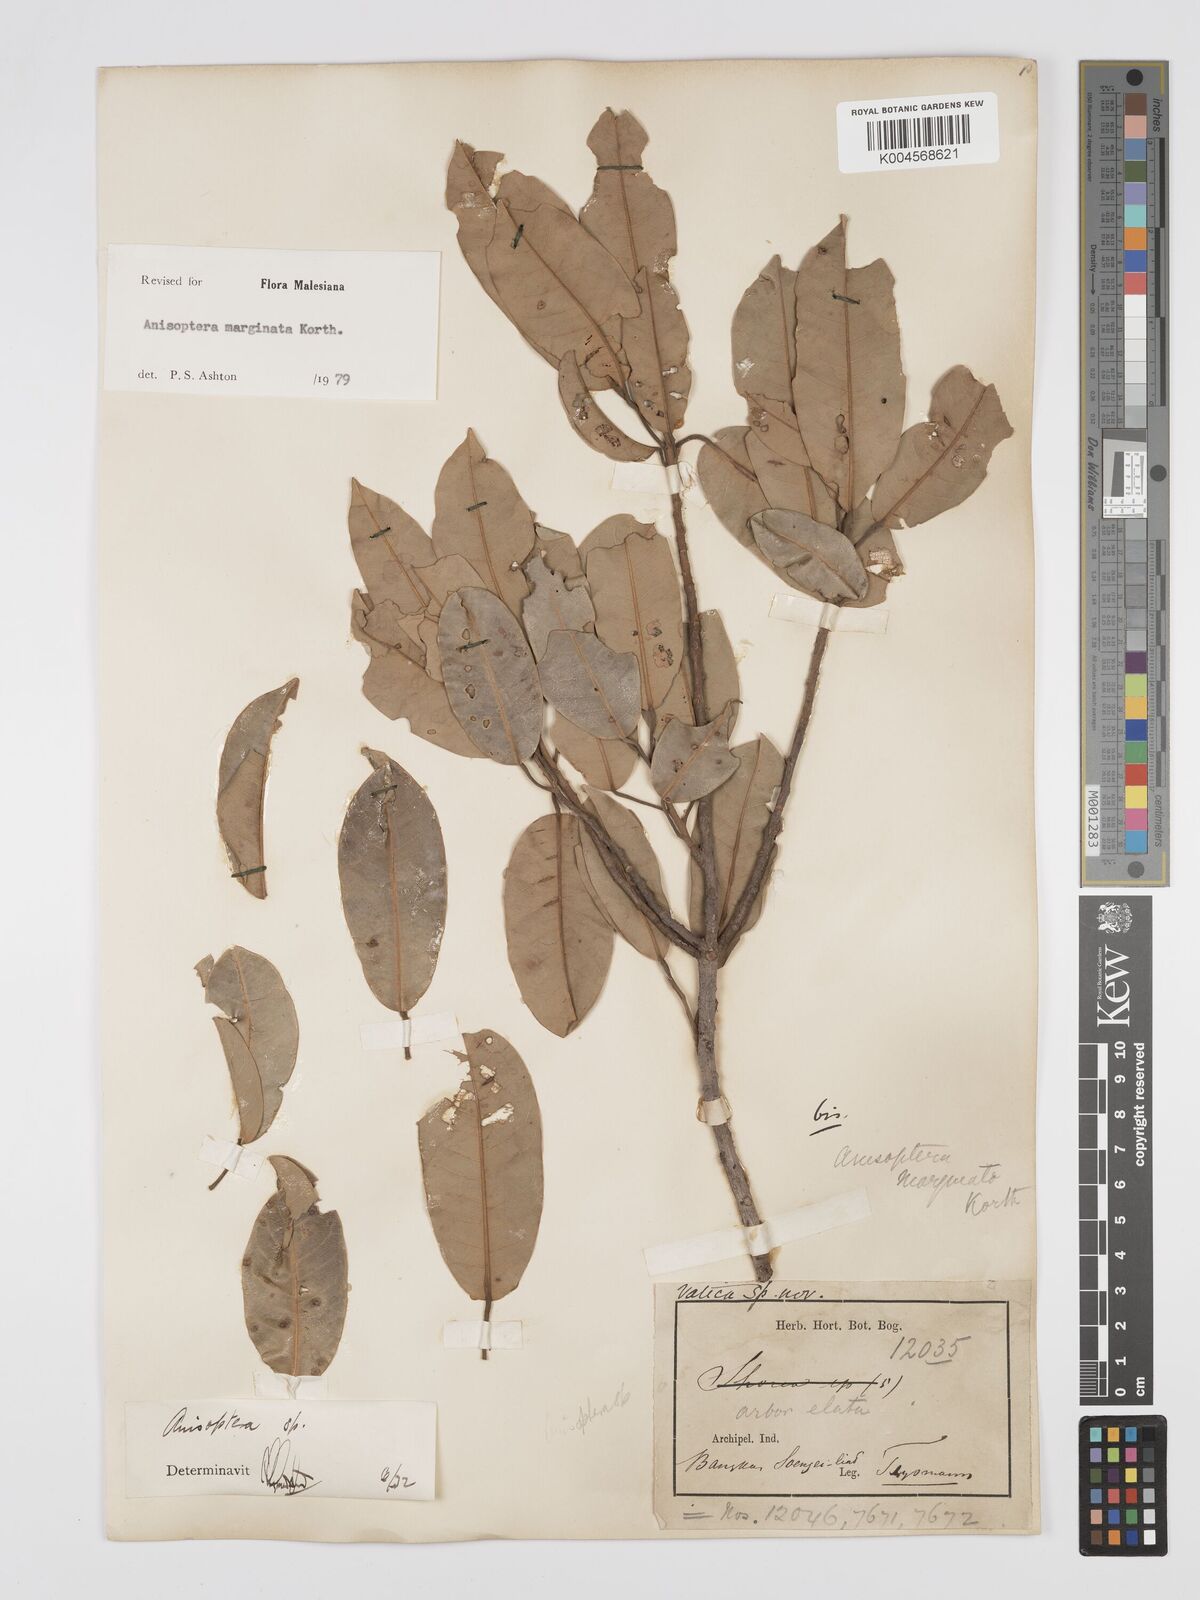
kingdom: Plantae
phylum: Tracheophyta
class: Magnoliopsida
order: Malvales
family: Dipterocarpaceae
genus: Anisoptera
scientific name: Anisoptera marginata
